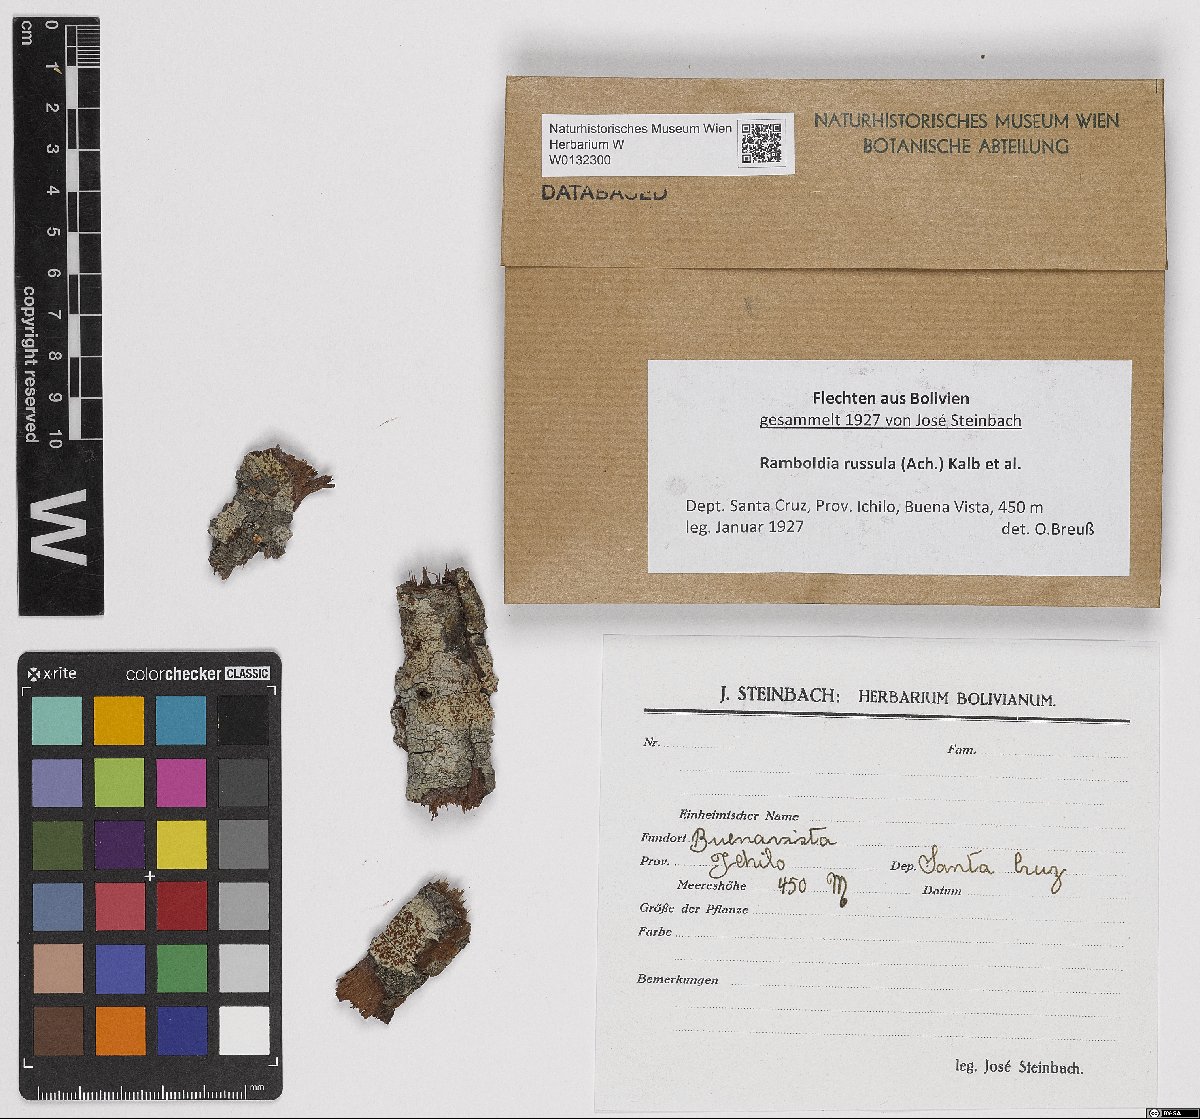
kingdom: Fungi
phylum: Ascomycota
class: Lecanoromycetes
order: Lecanorales
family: Ramboldiaceae
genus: Ramboldia
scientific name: Ramboldia russula
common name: Red heads
